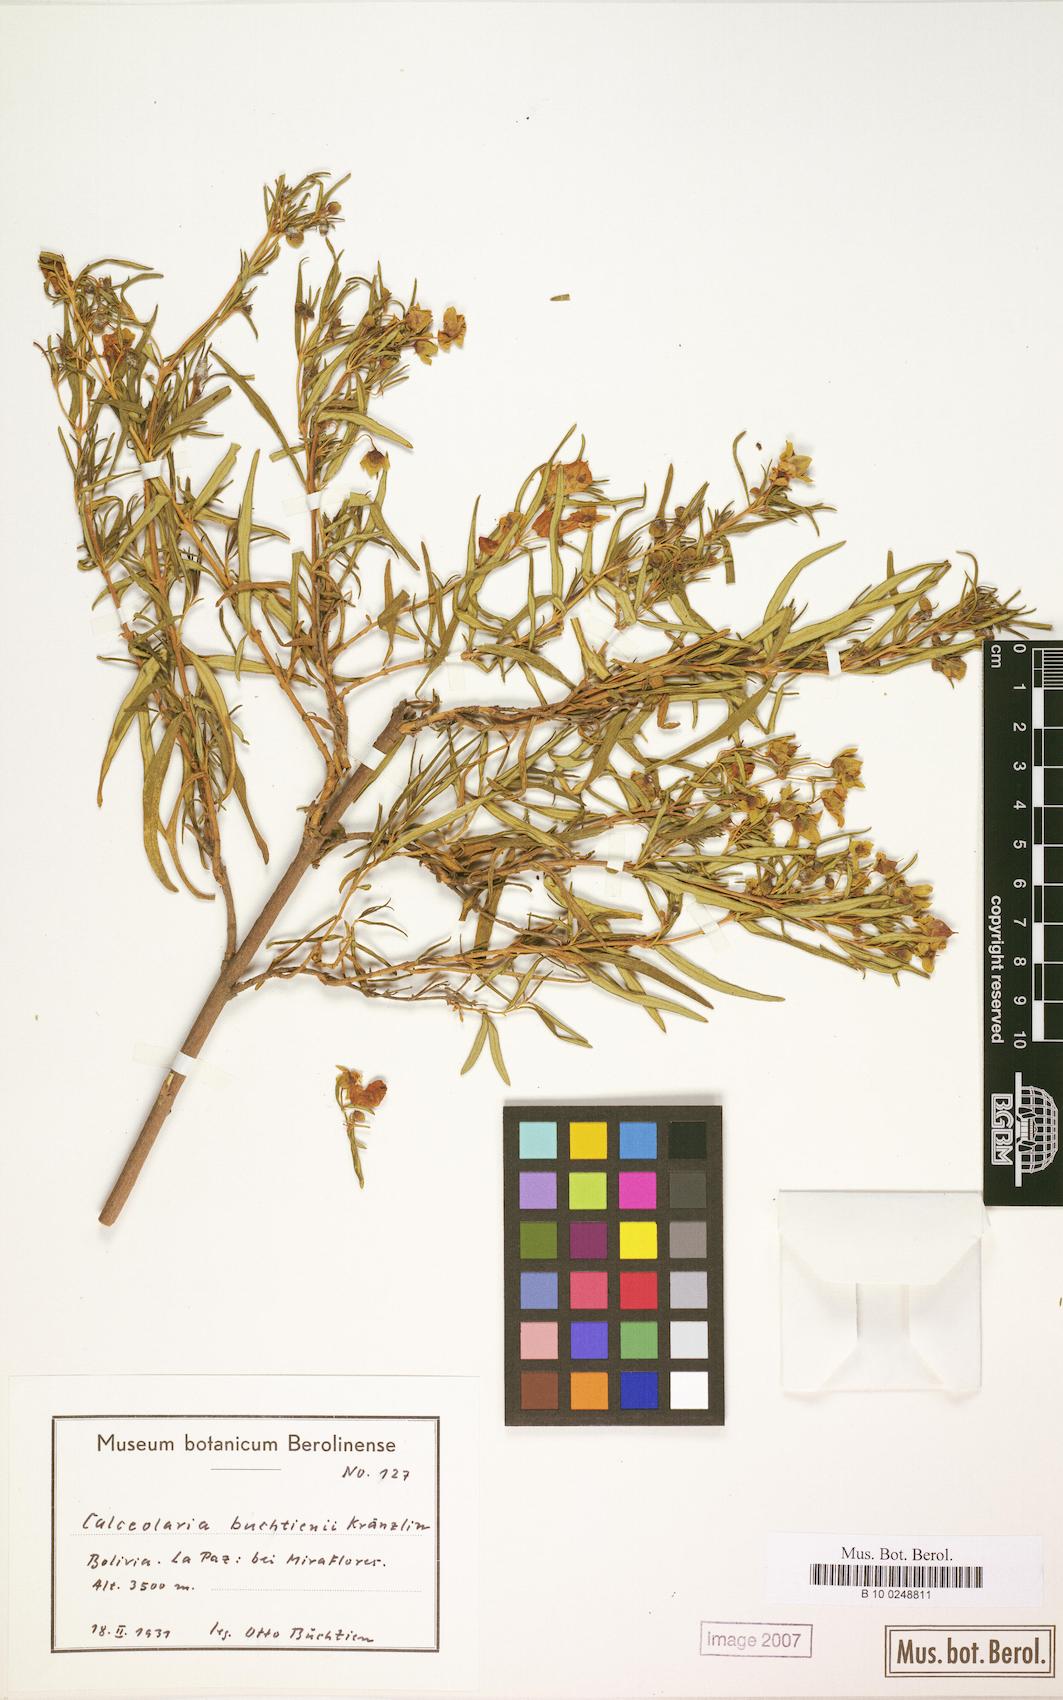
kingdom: Plantae
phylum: Tracheophyta
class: Magnoliopsida
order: Lamiales
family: Calceolariaceae
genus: Calceolaria
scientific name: Calceolaria buchtieniana
